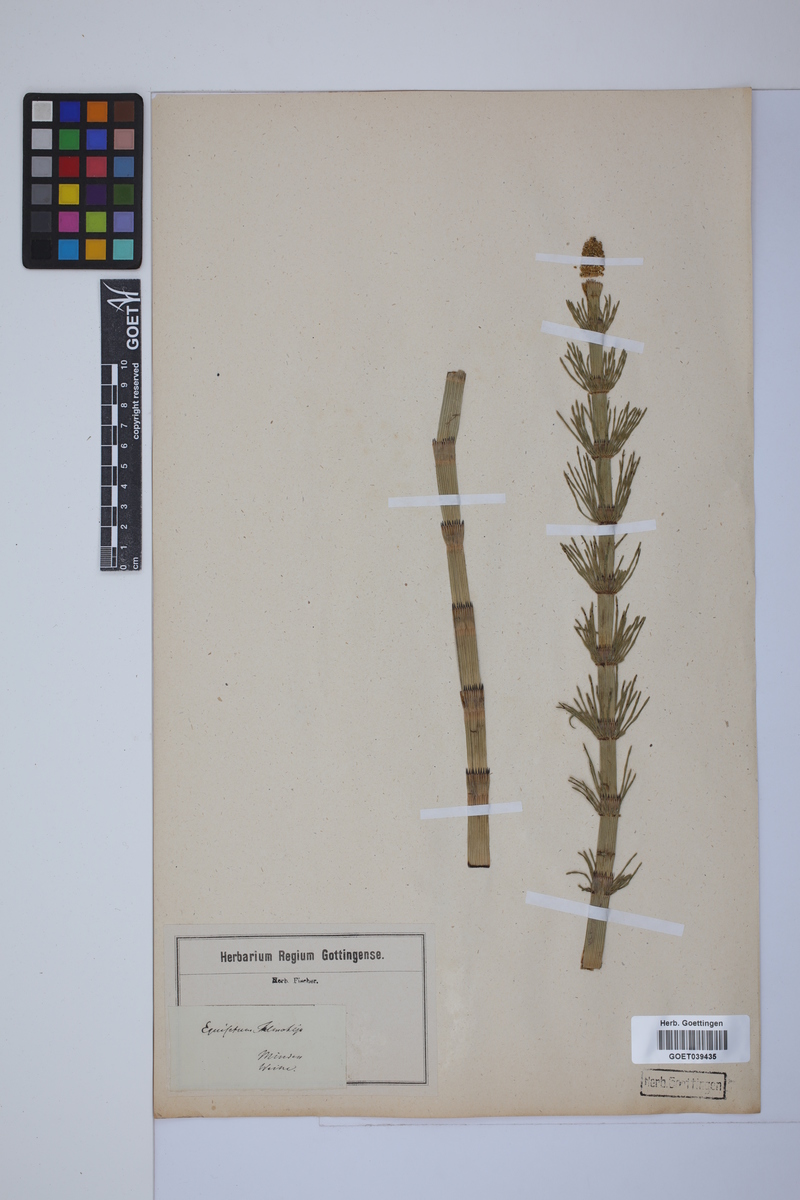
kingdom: Plantae
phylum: Tracheophyta
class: Polypodiopsida
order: Equisetales
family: Equisetaceae
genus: Equisetum
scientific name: Equisetum telmateia
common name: Great horsetail
